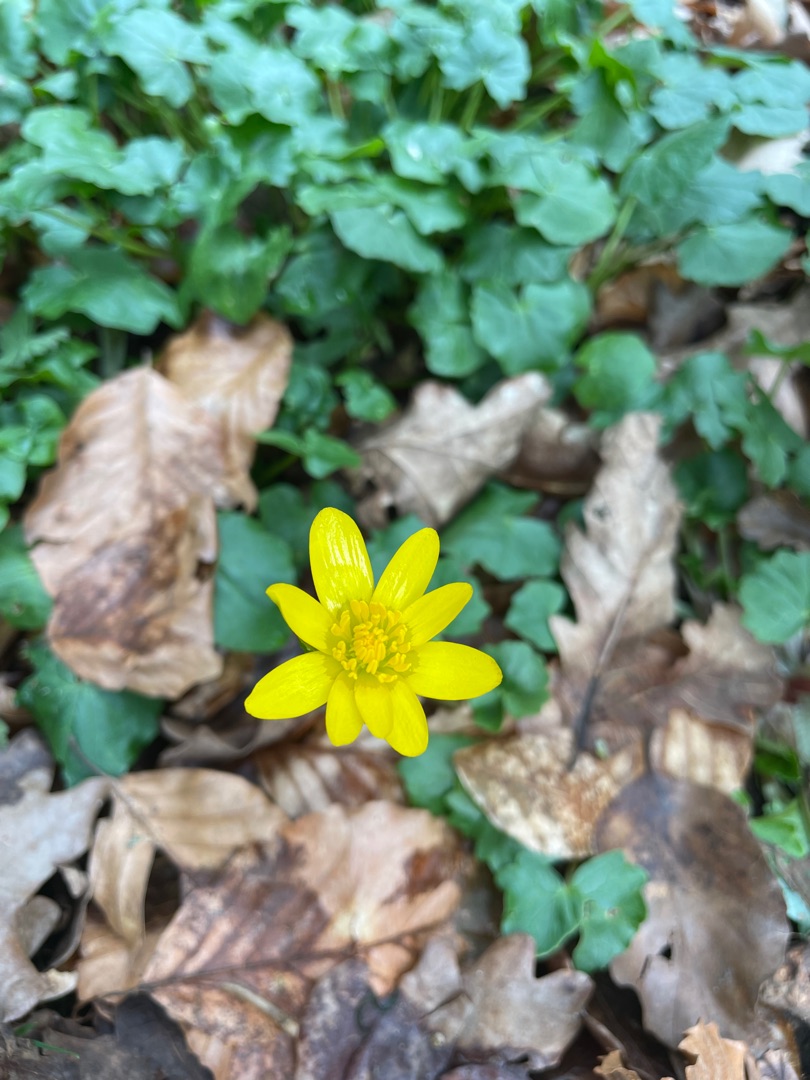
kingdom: Plantae
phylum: Tracheophyta
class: Magnoliopsida
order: Ranunculales
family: Ranunculaceae
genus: Ficaria
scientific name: Ficaria verna
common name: Vorterod
